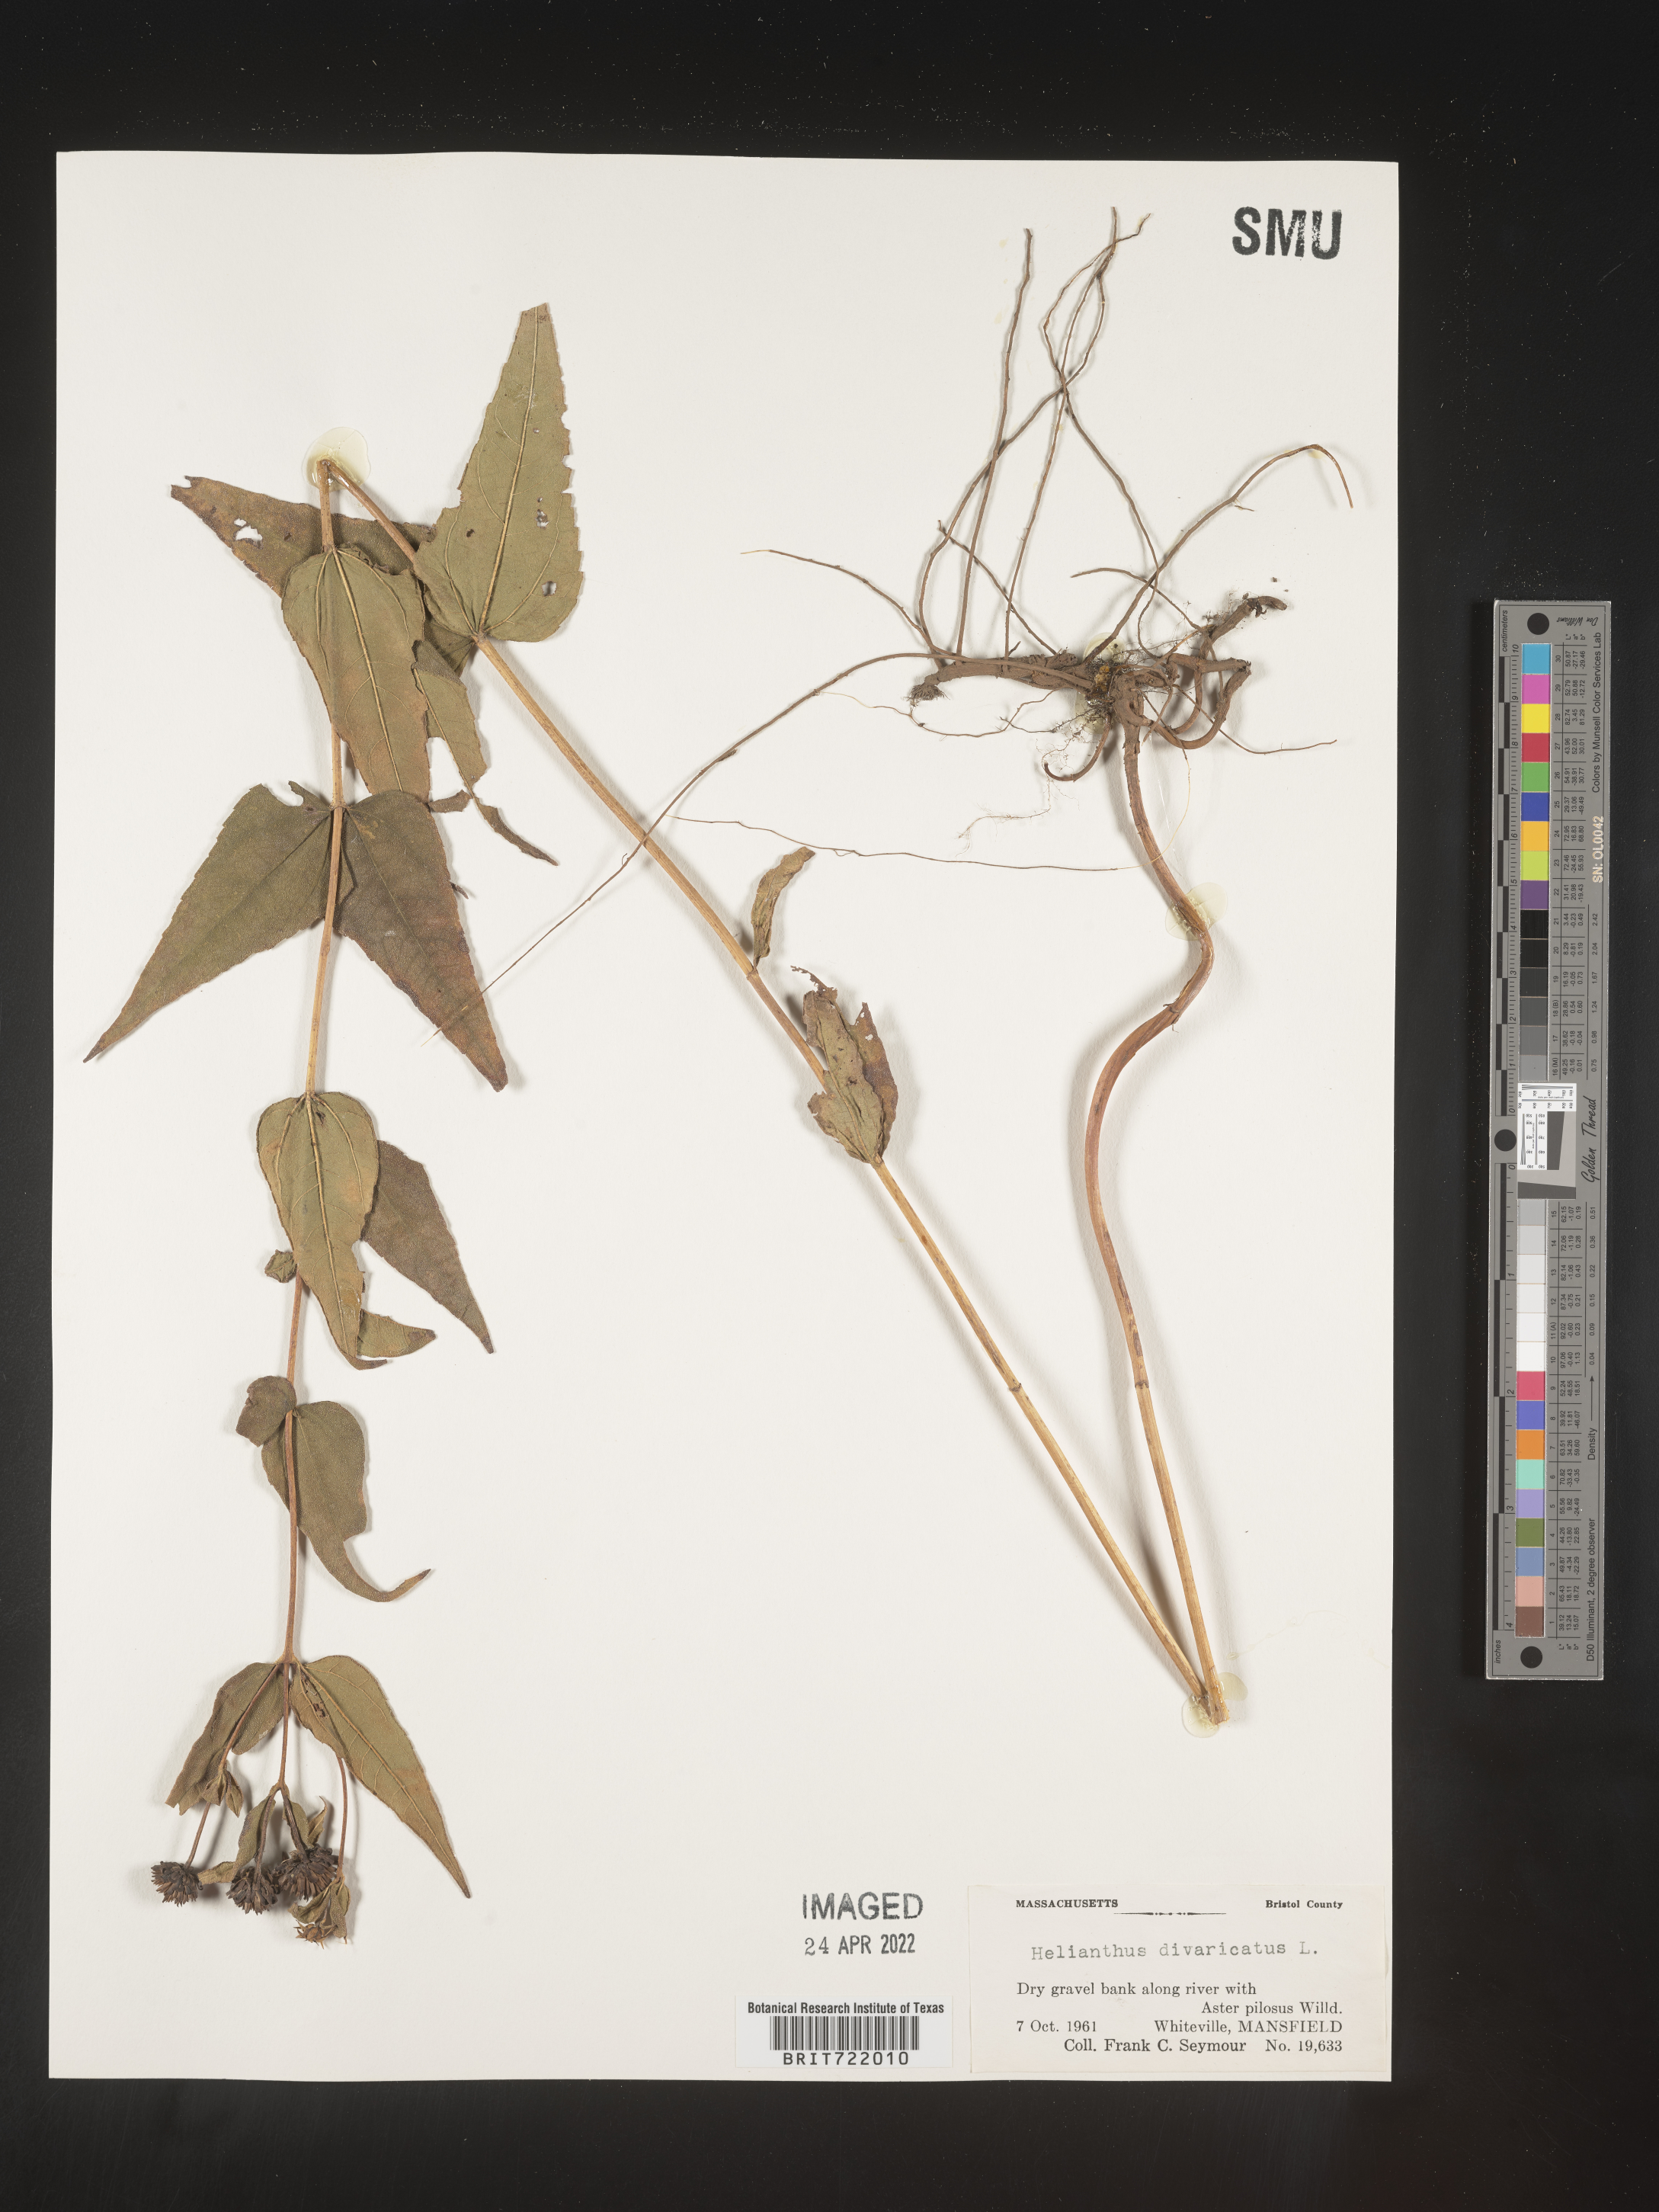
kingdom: Plantae
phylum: Tracheophyta
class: Magnoliopsida
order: Asterales
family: Asteraceae
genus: Helianthus
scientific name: Helianthus divaricatus
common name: Divergent sunflower
